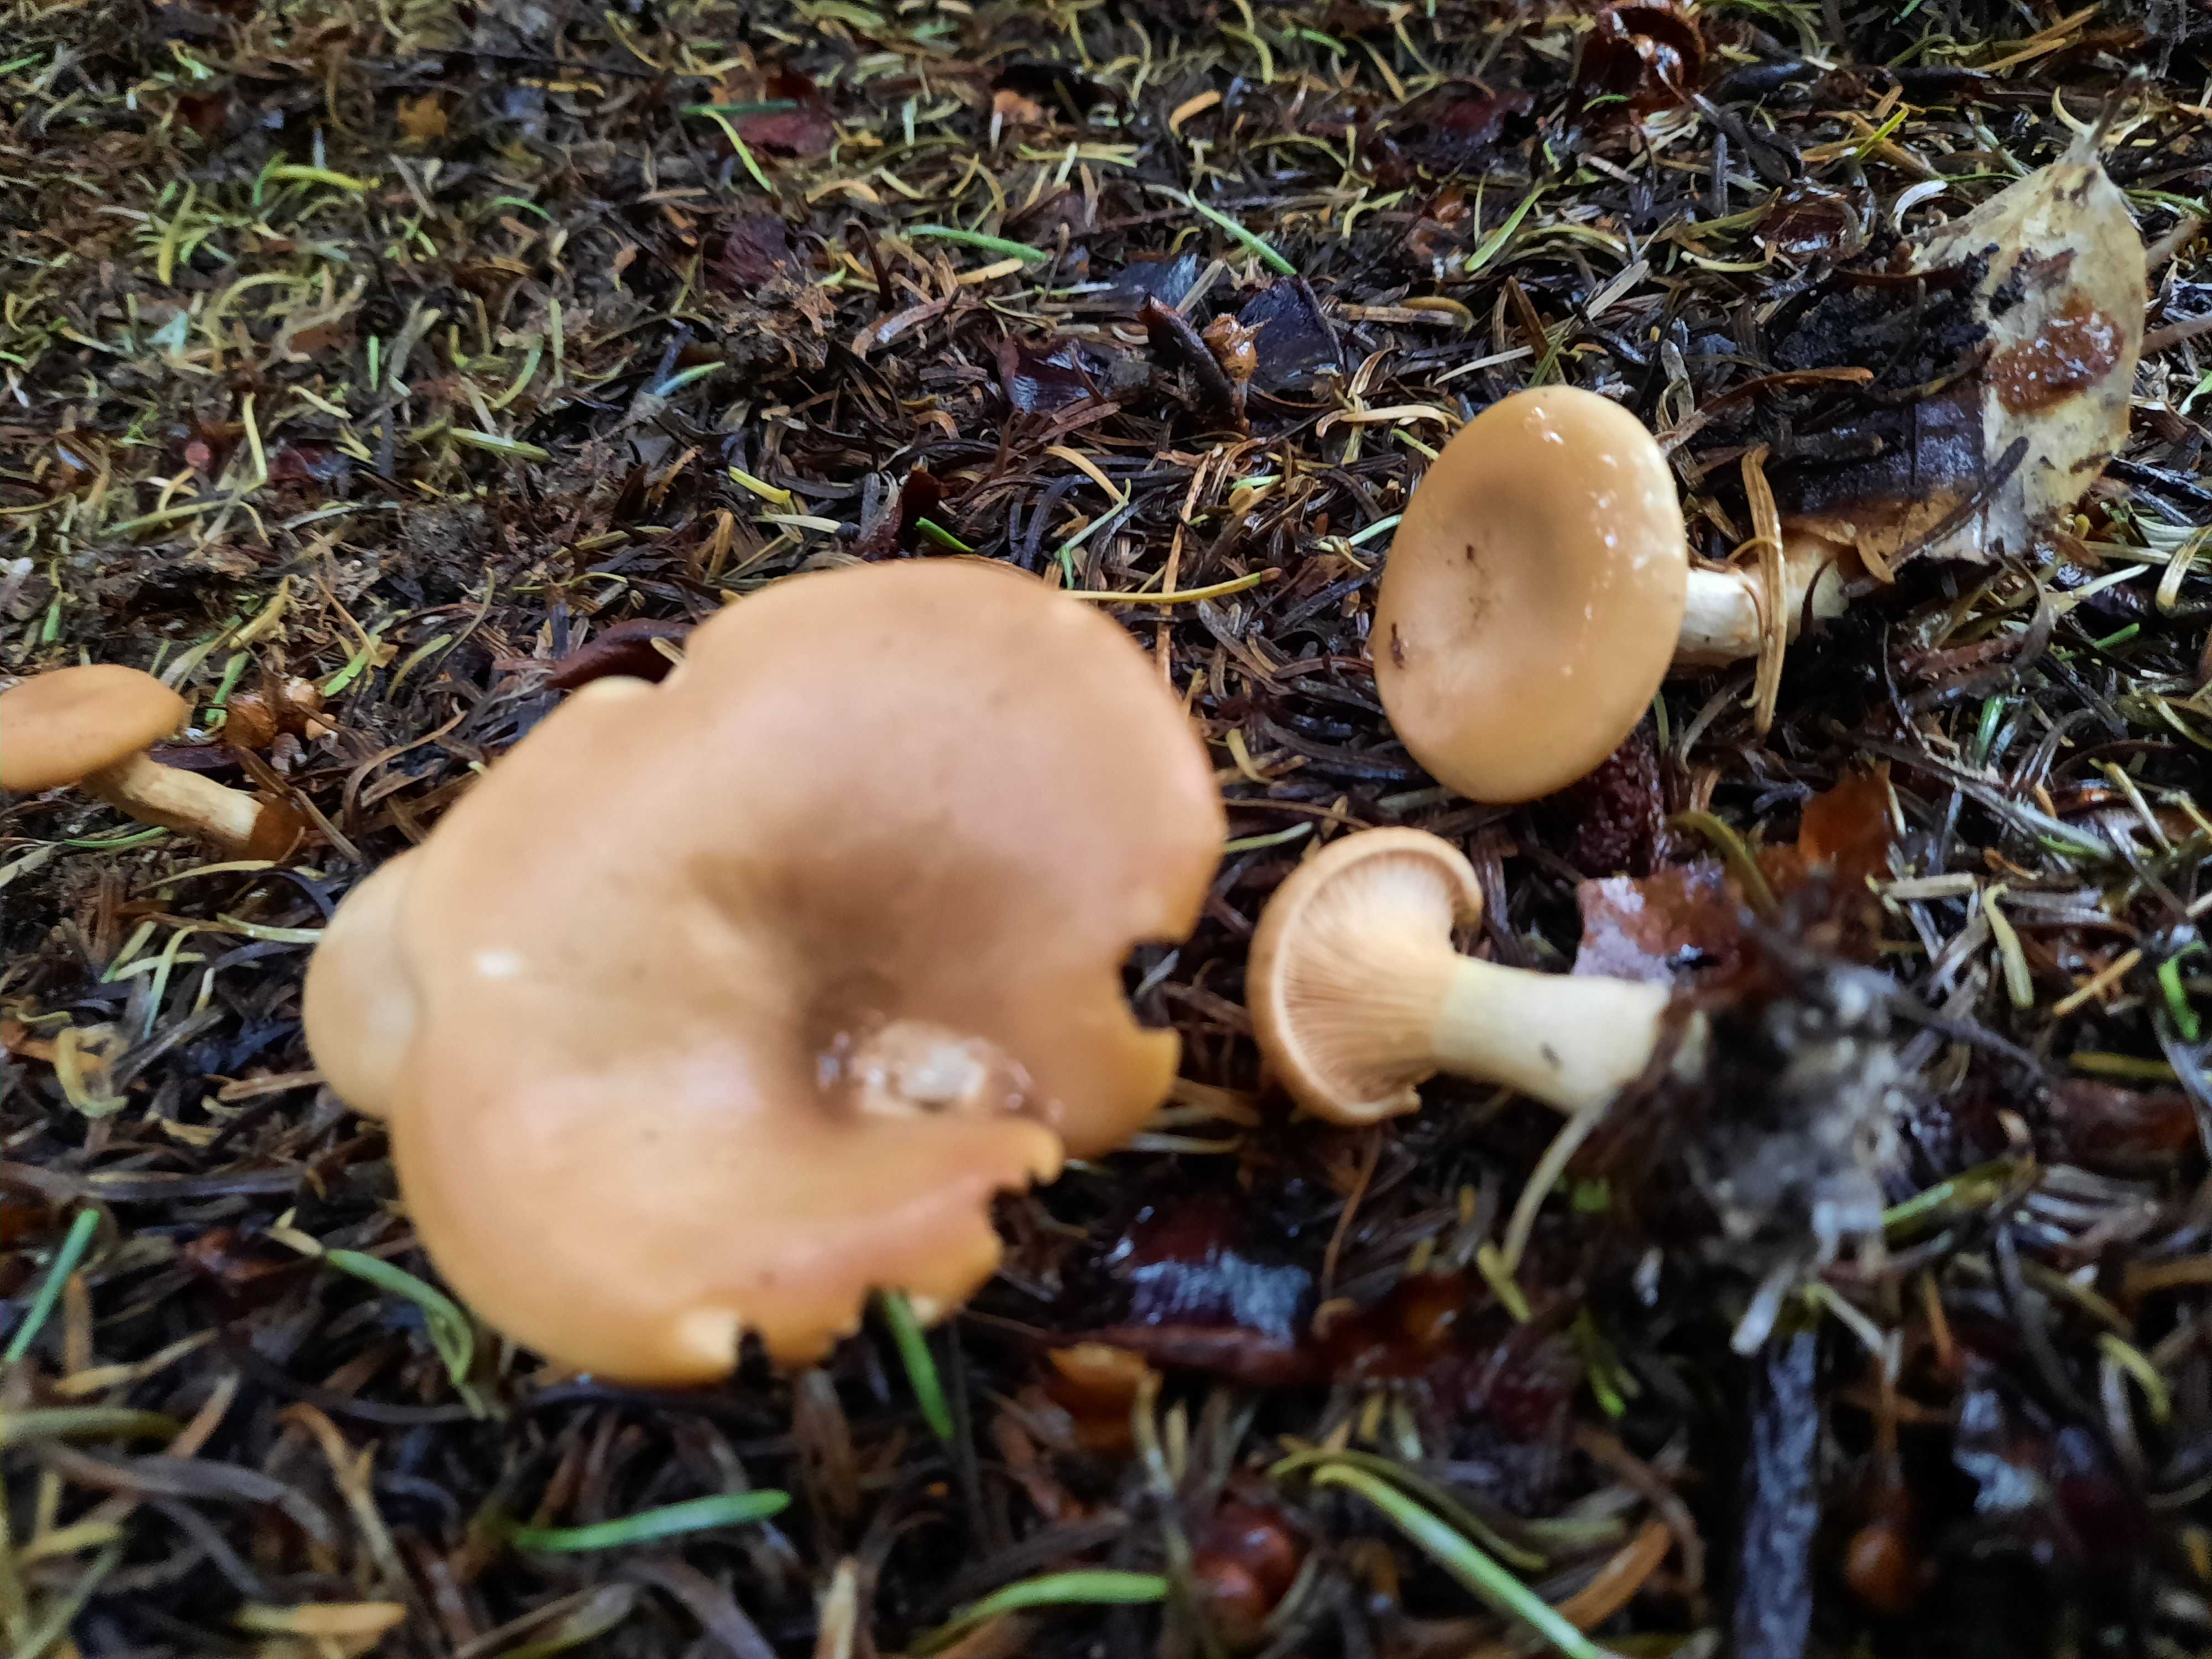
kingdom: Fungi
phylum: Basidiomycota
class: Agaricomycetes
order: Agaricales
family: Tricholomataceae
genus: Paralepista
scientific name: Paralepista flaccida
